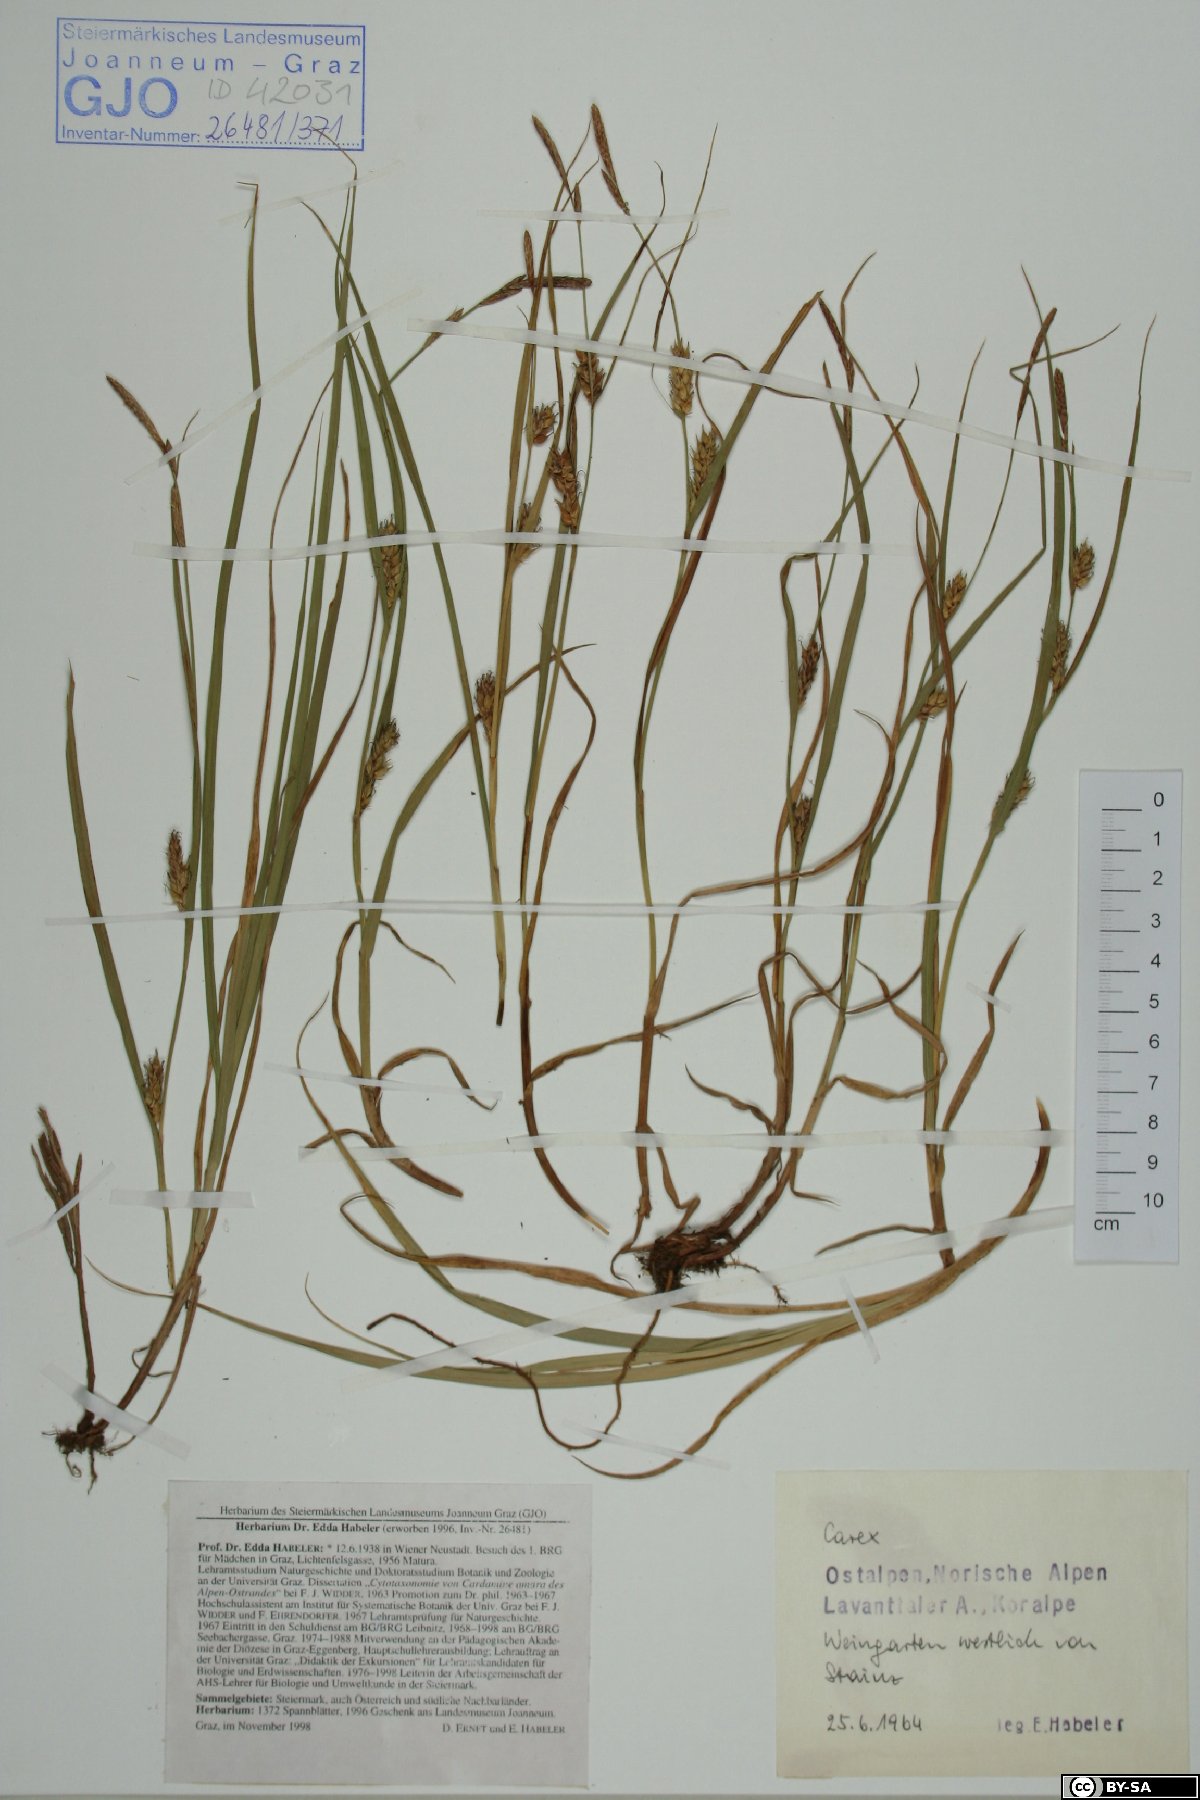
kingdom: Plantae
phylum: Tracheophyta
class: Liliopsida
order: Poales
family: Cyperaceae
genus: Carex
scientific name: Carex
